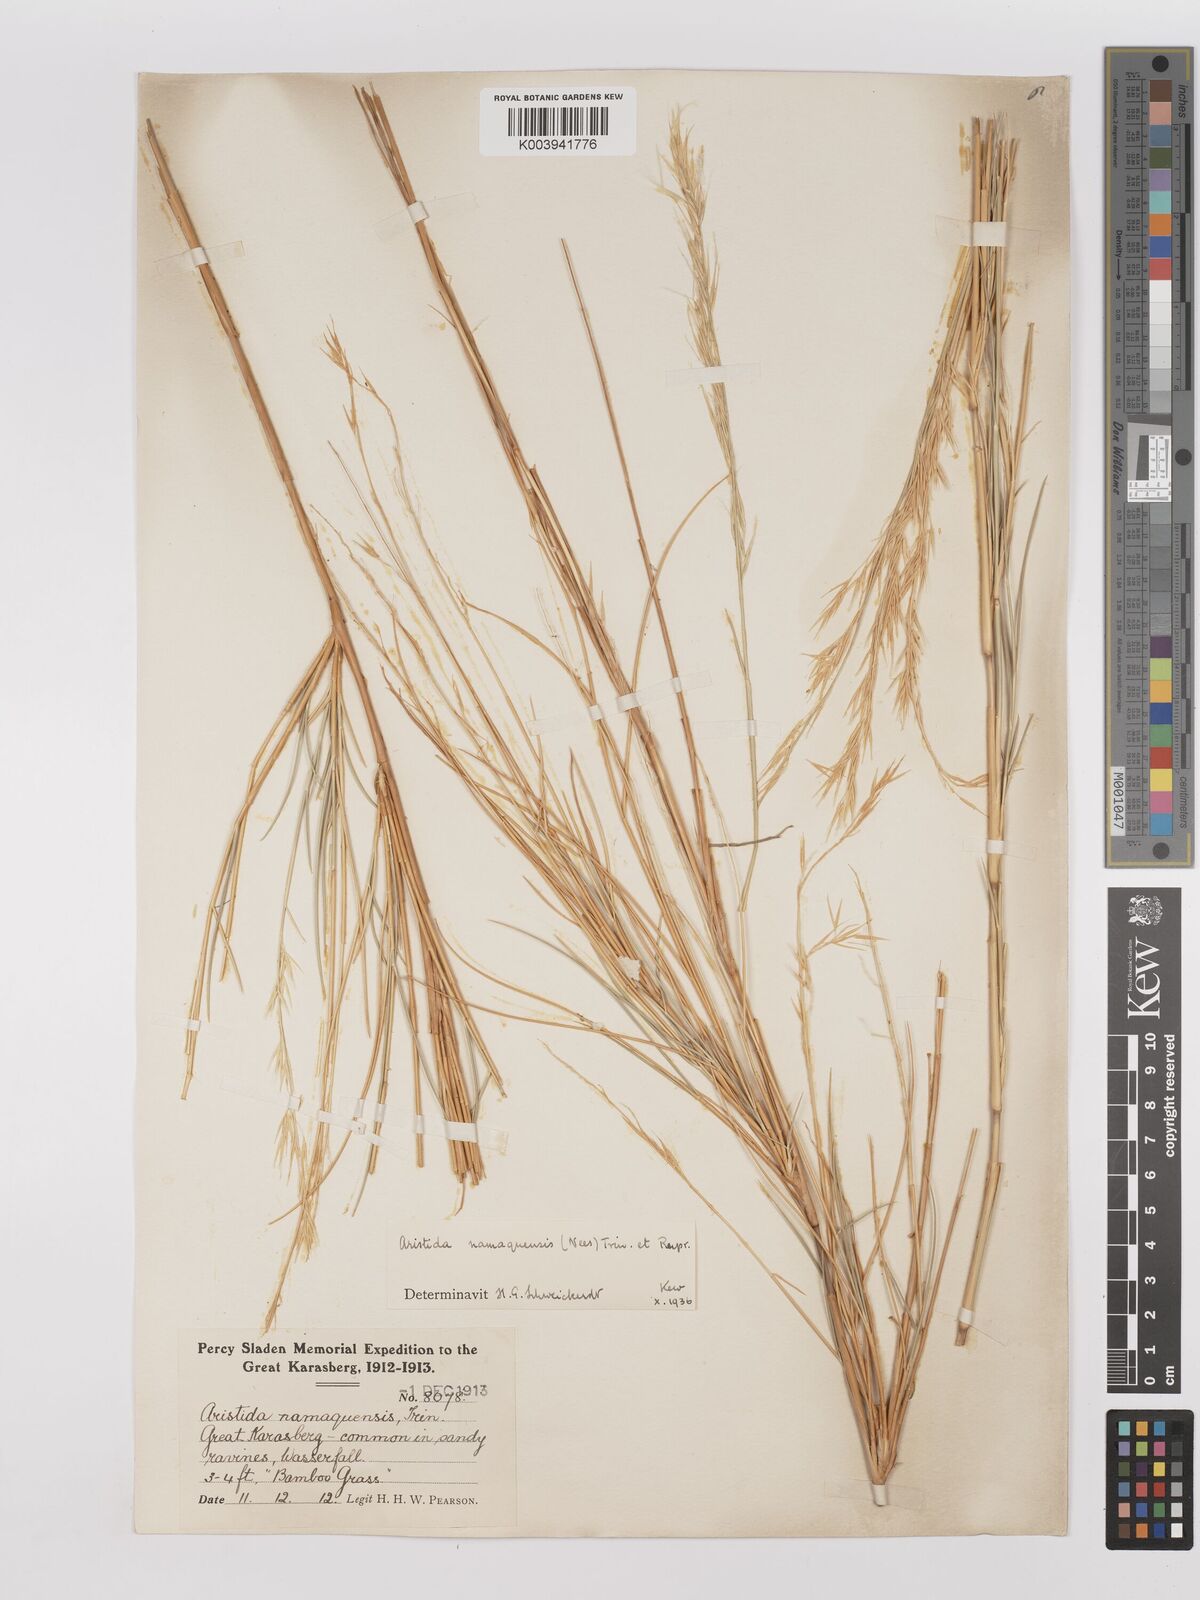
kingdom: Plantae
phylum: Tracheophyta
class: Liliopsida
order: Poales
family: Poaceae
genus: Stipagrostis
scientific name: Stipagrostis namaquensis
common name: River bushman grass
